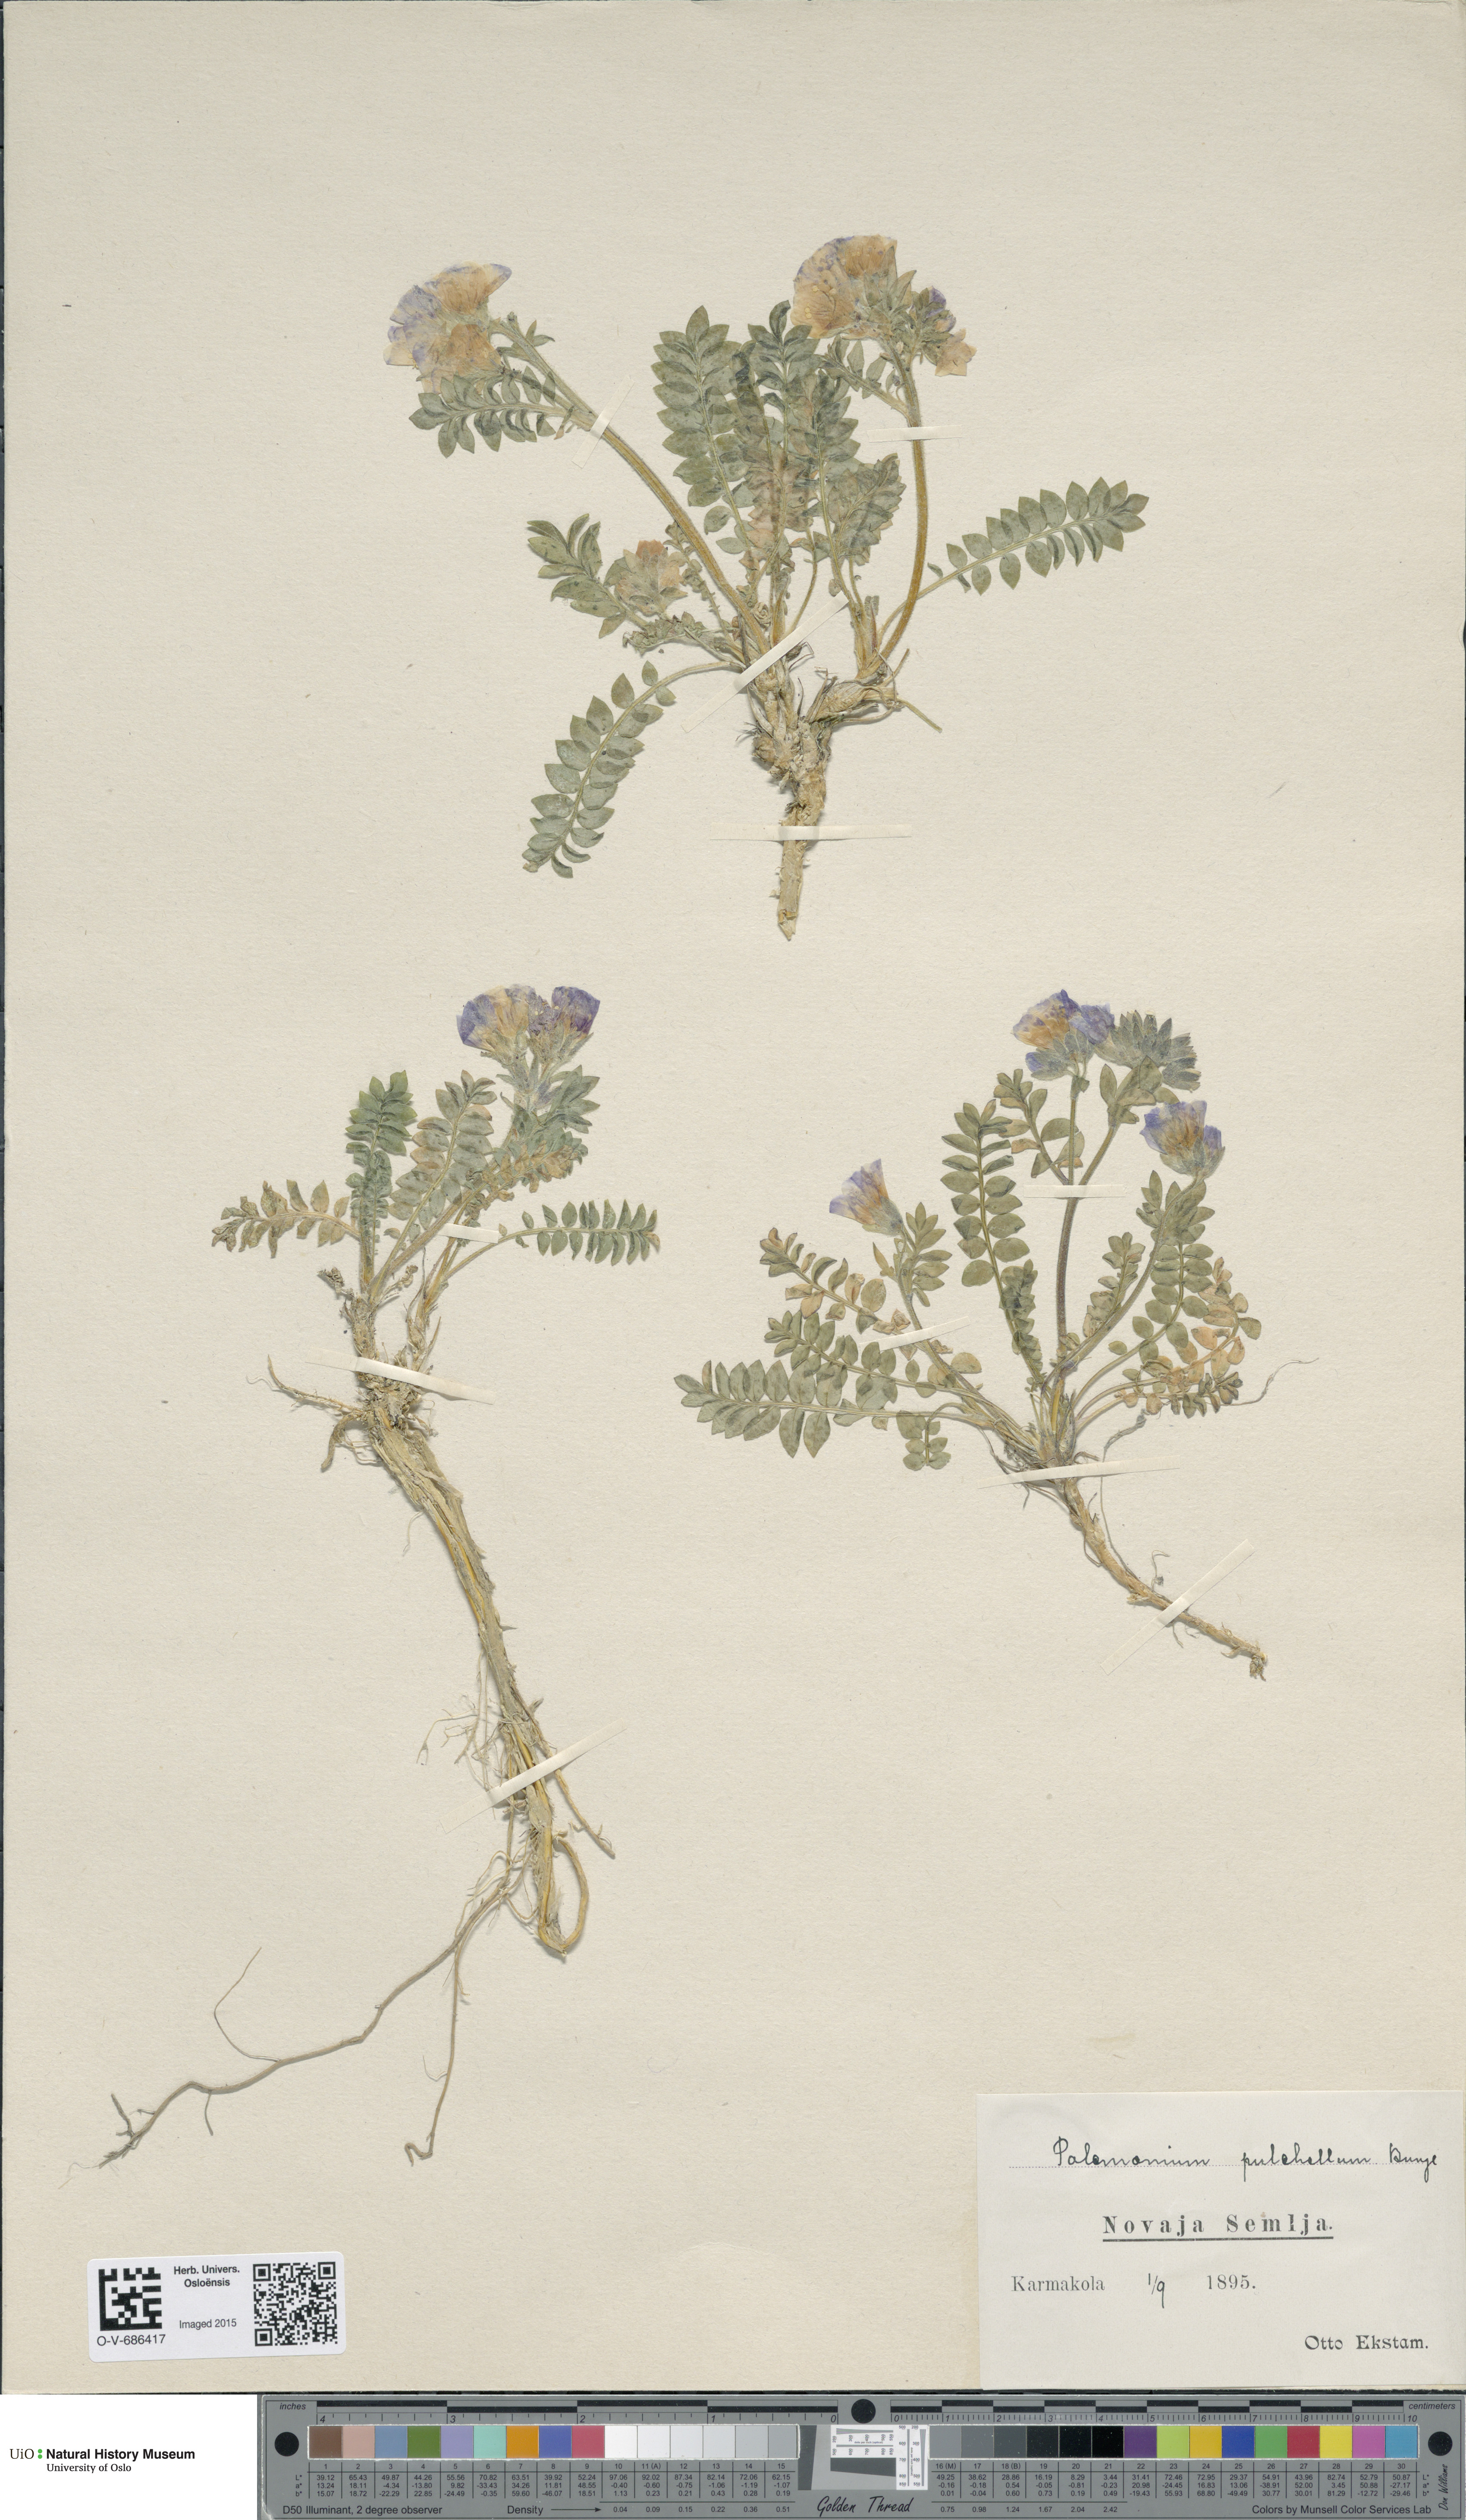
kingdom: Plantae
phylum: Tracheophyta
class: Magnoliopsida
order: Ericales
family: Polemoniaceae
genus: Polemonium
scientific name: Polemonium boreale
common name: Boreal jacob's-ladder
